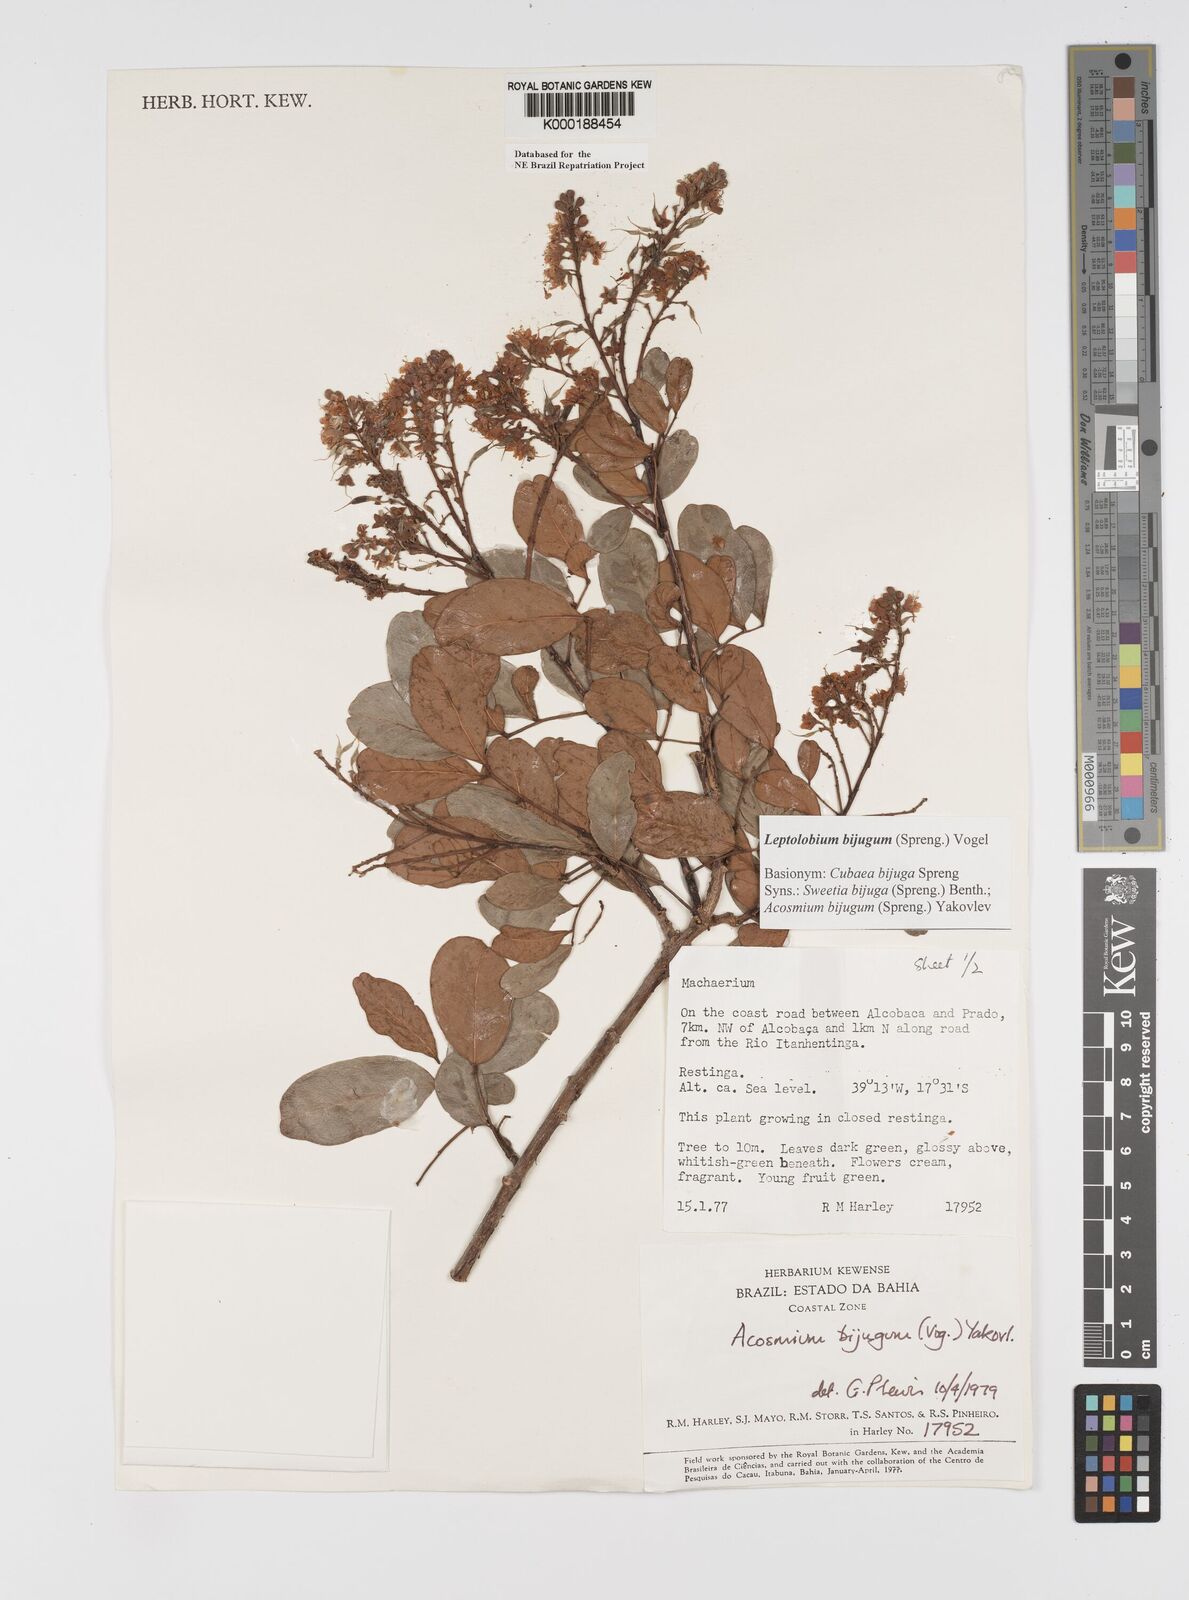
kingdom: Plantae
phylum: Tracheophyta
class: Magnoliopsida
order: Fabales
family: Fabaceae
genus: Leptolobium
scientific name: Leptolobium bijugum
